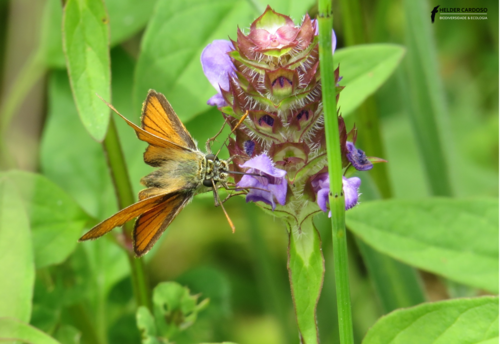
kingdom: Animalia
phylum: Arthropoda
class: Insecta
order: Lepidoptera
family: Hesperiidae
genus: Thymelicus
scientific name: Thymelicus sylvestris
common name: Small skipper
